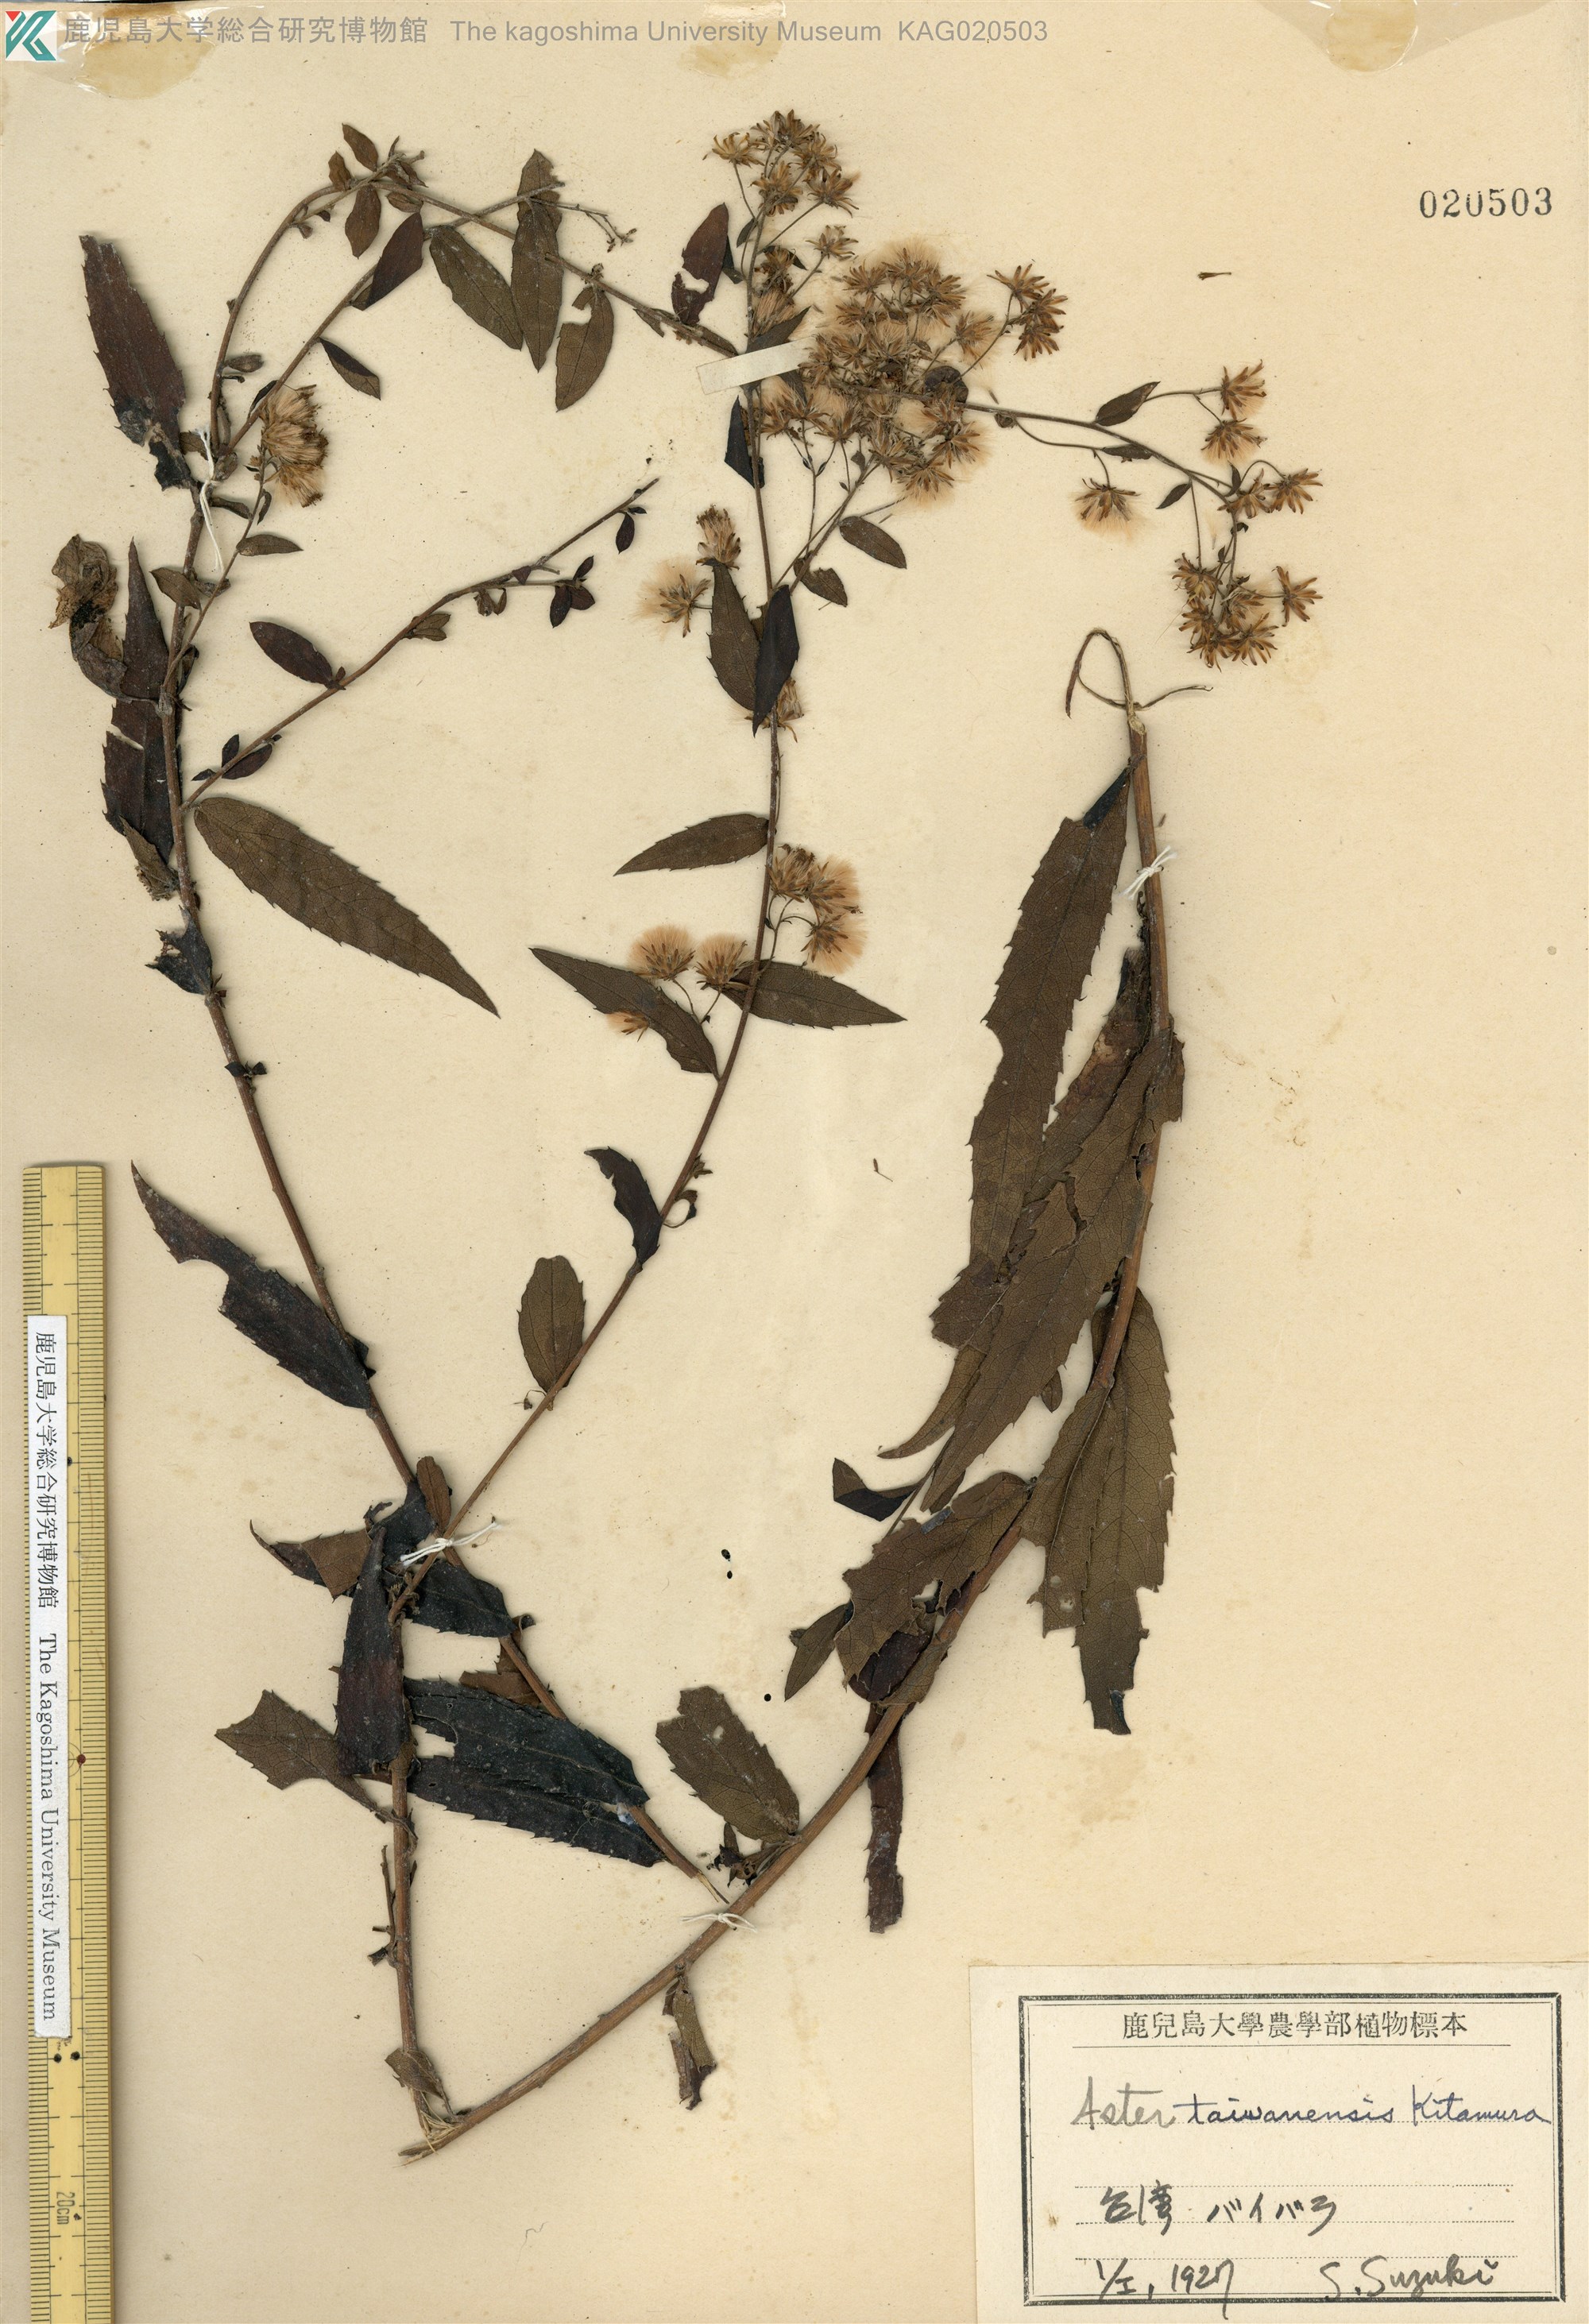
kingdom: Plantae
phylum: Tracheophyta
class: Magnoliopsida
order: Asterales
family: Asteraceae
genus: Aster
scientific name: Aster taiwanensis
